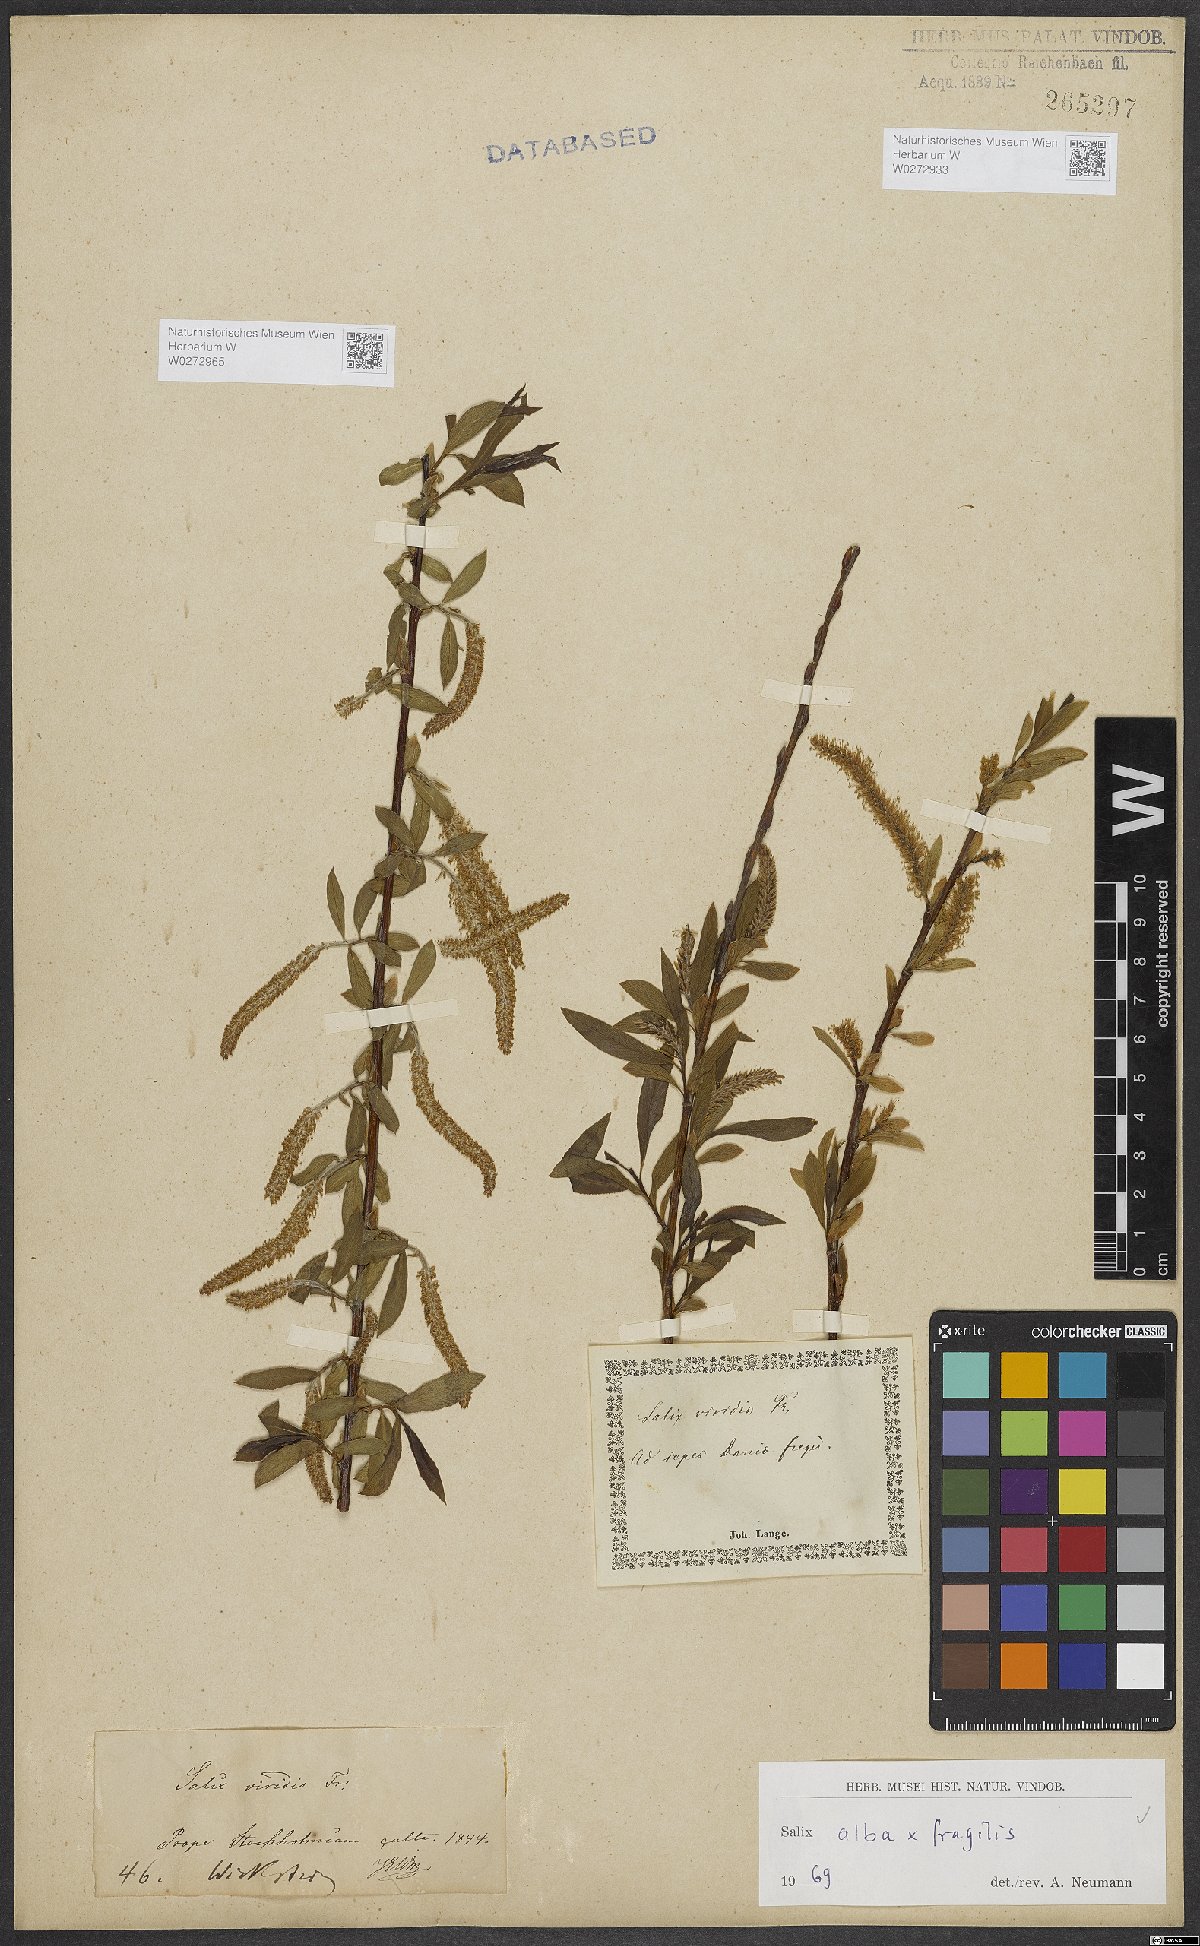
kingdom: Plantae
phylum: Tracheophyta
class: Magnoliopsida
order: Malpighiales
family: Salicaceae
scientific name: Salicaceae
